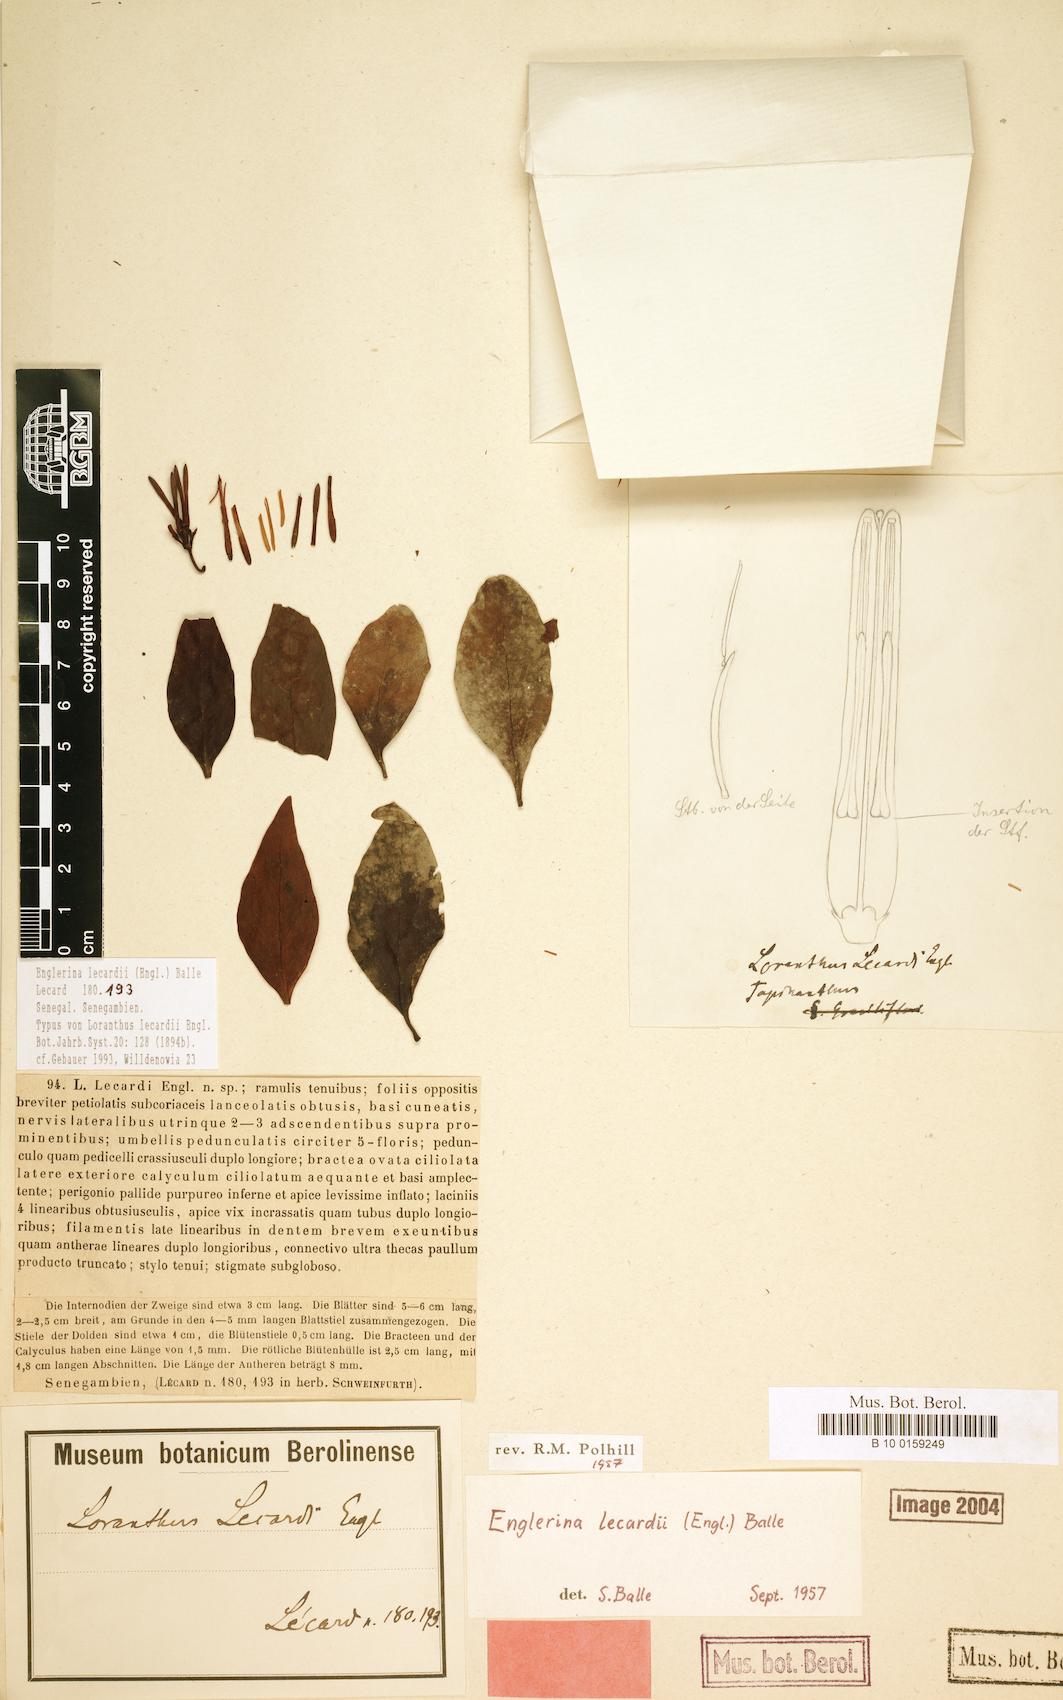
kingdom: Plantae
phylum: Tracheophyta
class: Magnoliopsida
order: Santalales
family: Loranthaceae
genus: Englerina
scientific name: Englerina lecardii
